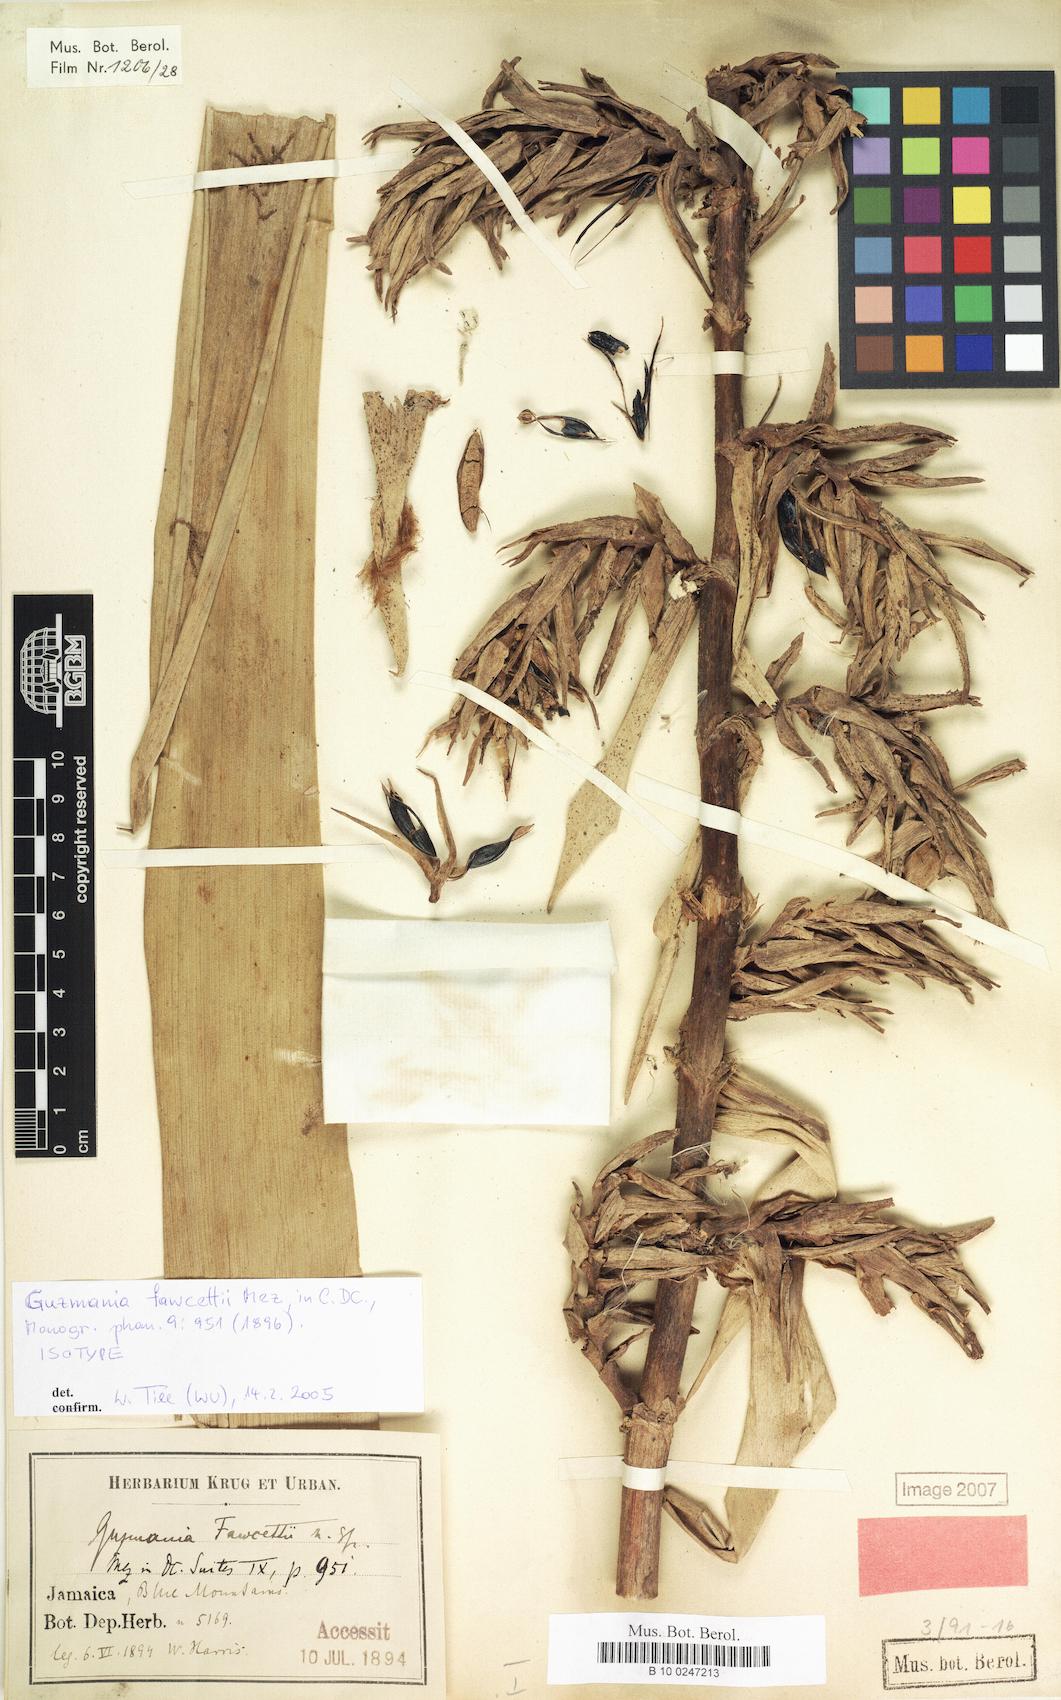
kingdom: Plantae
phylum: Tracheophyta
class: Liliopsida
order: Poales
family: Bromeliaceae
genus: Guzmania
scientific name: Guzmania fawcettii
